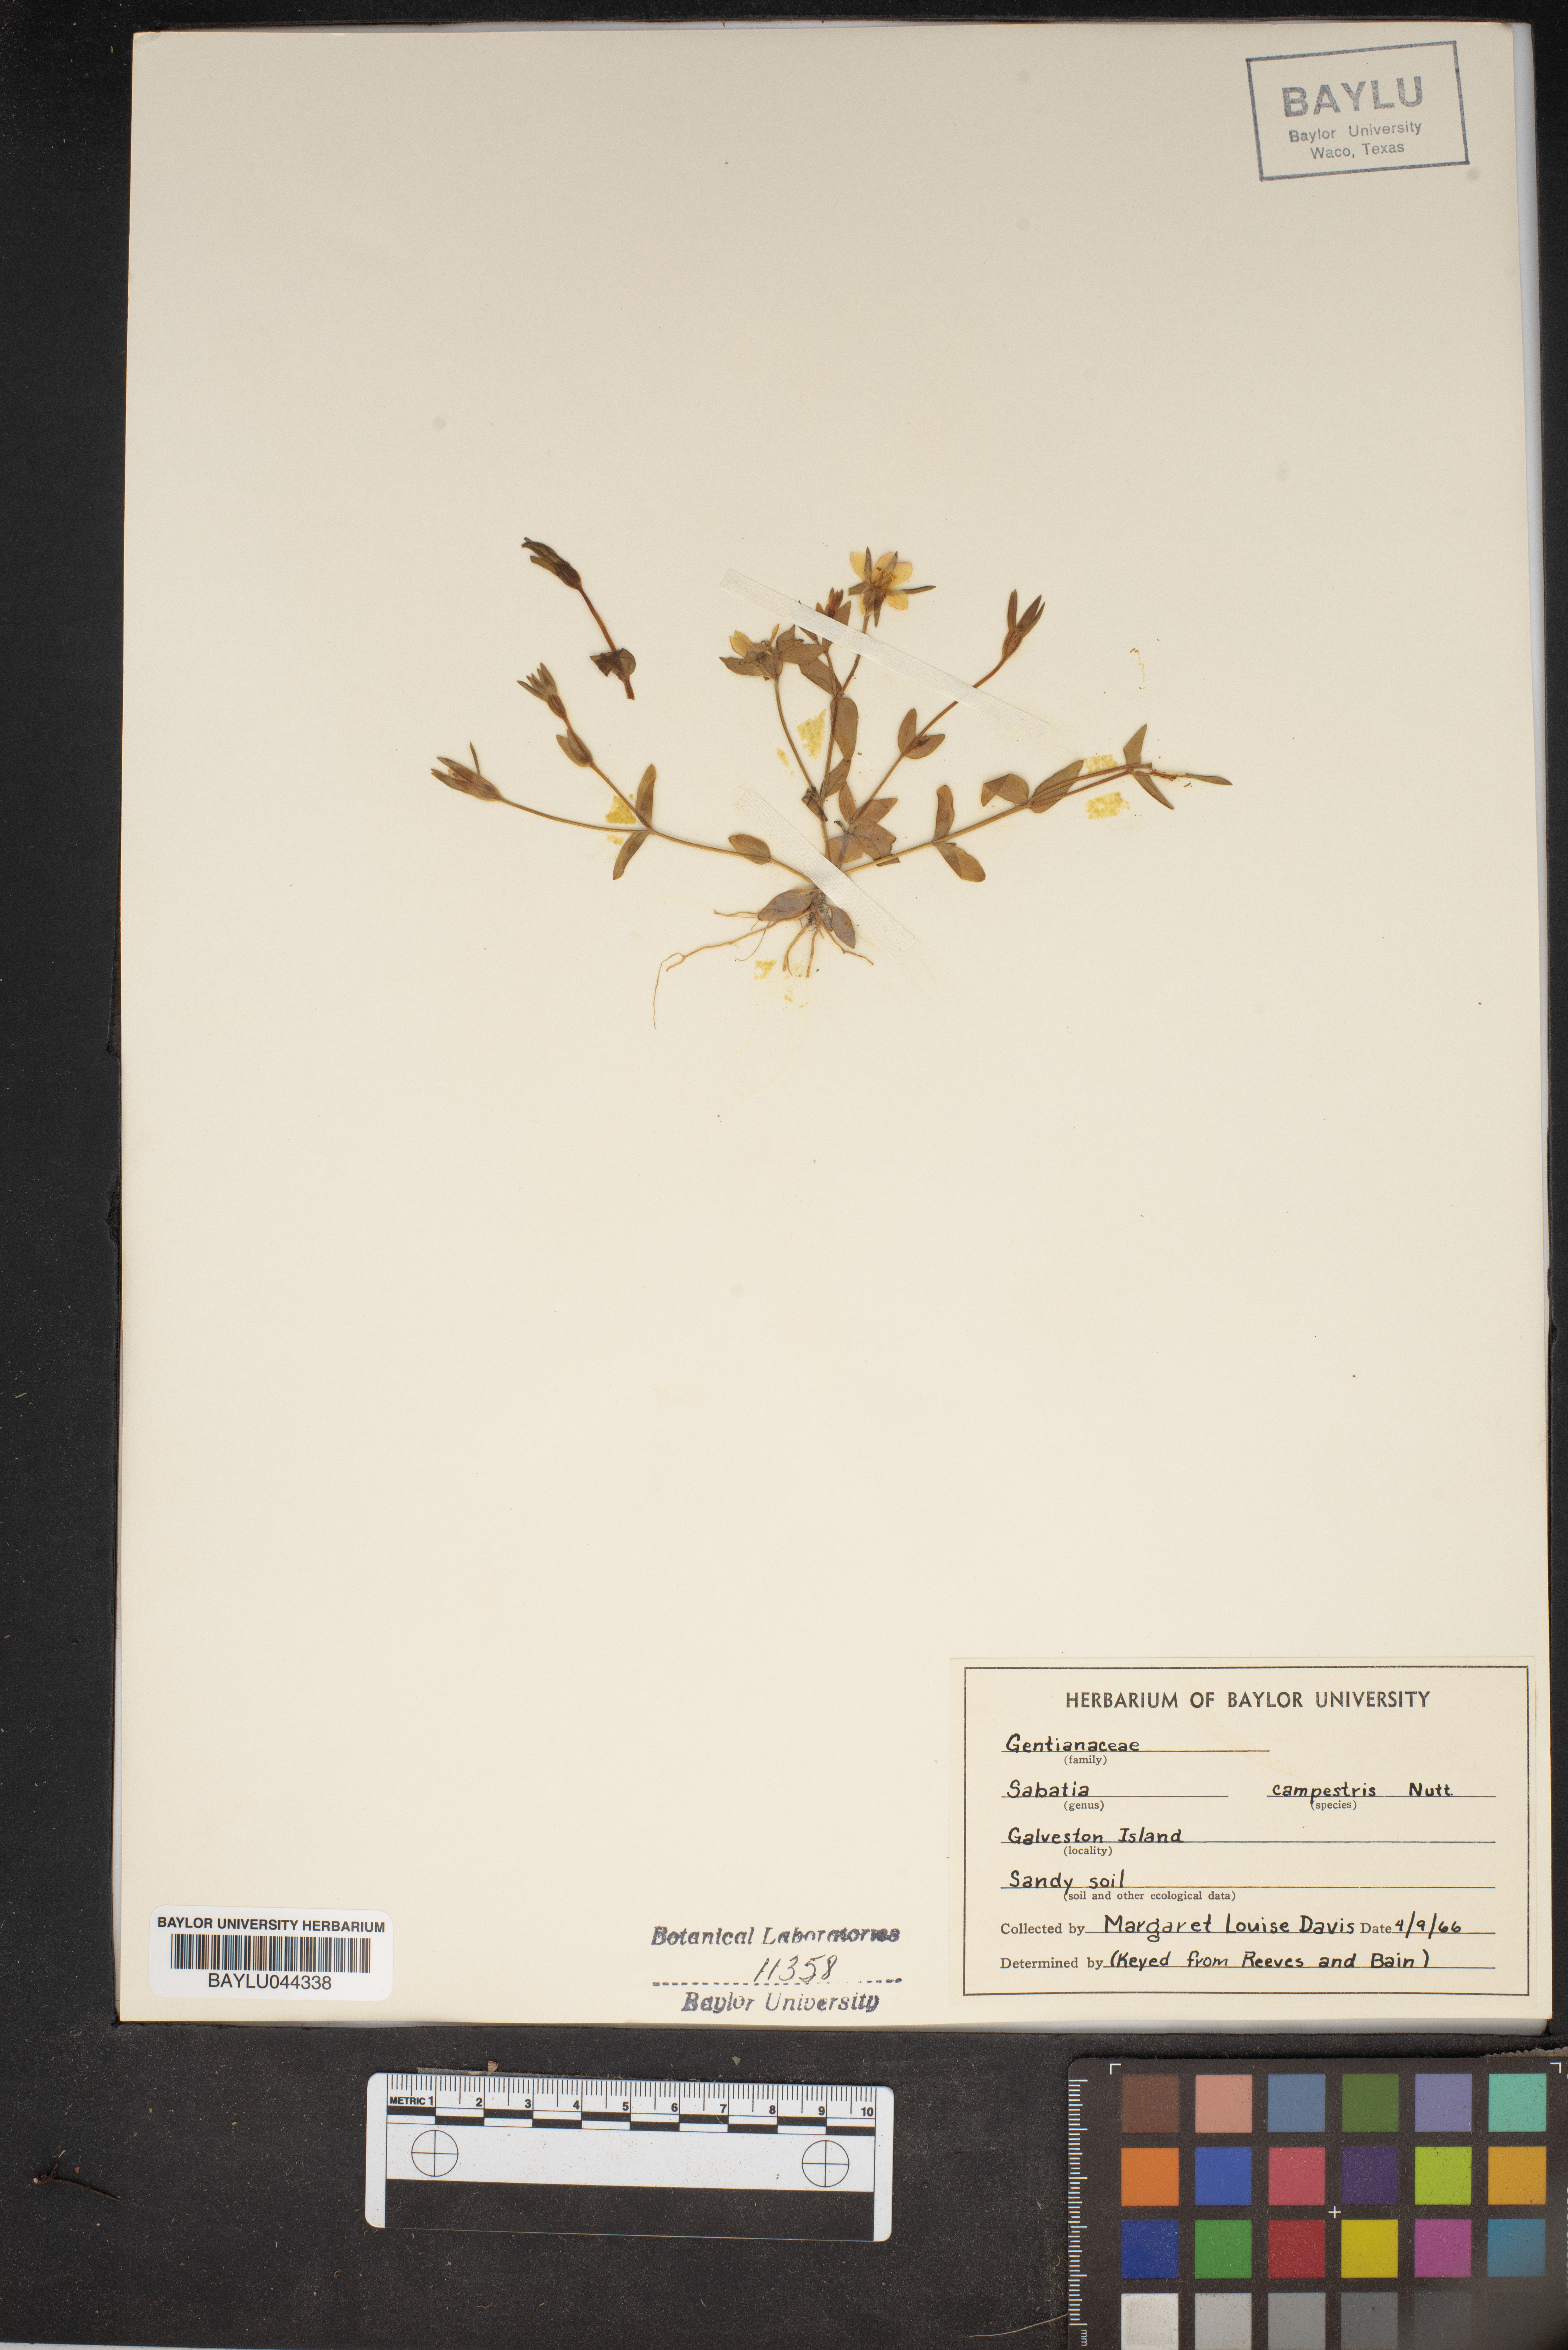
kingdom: Plantae
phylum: Tracheophyta
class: Magnoliopsida
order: Gentianales
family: Gentianaceae
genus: Sabatia
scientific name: Sabatia campestris
